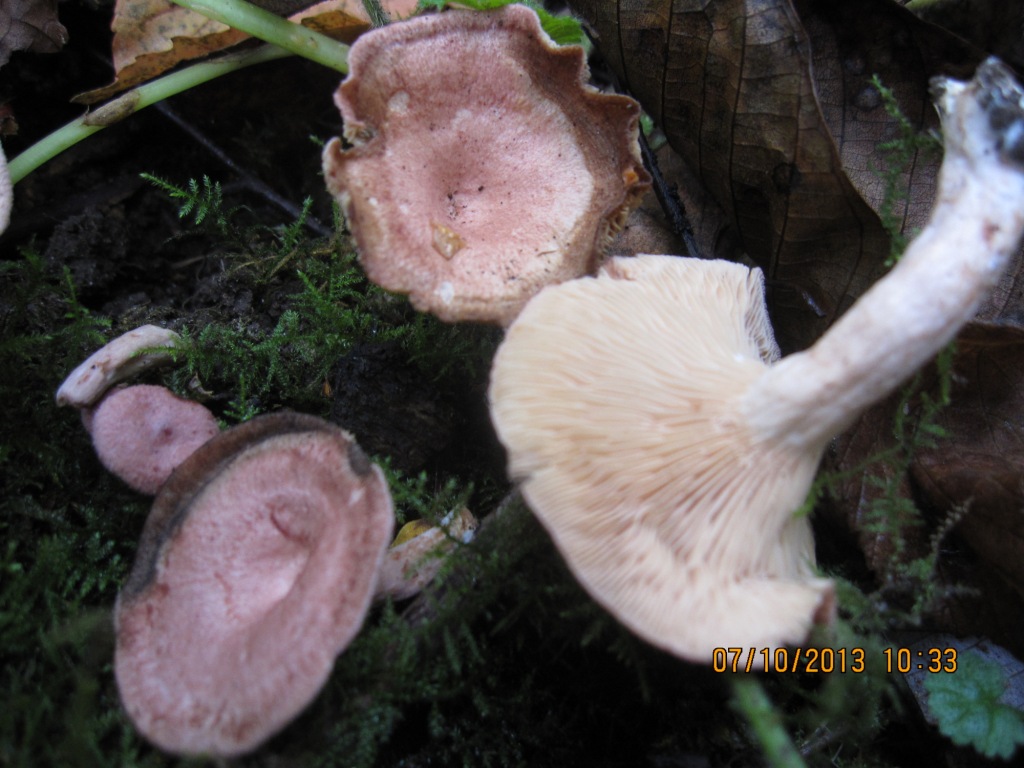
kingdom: Fungi
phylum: Basidiomycota
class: Agaricomycetes
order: Russulales
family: Russulaceae
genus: Lactarius
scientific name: Lactarius spinosulus
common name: småskællet mælkehat
